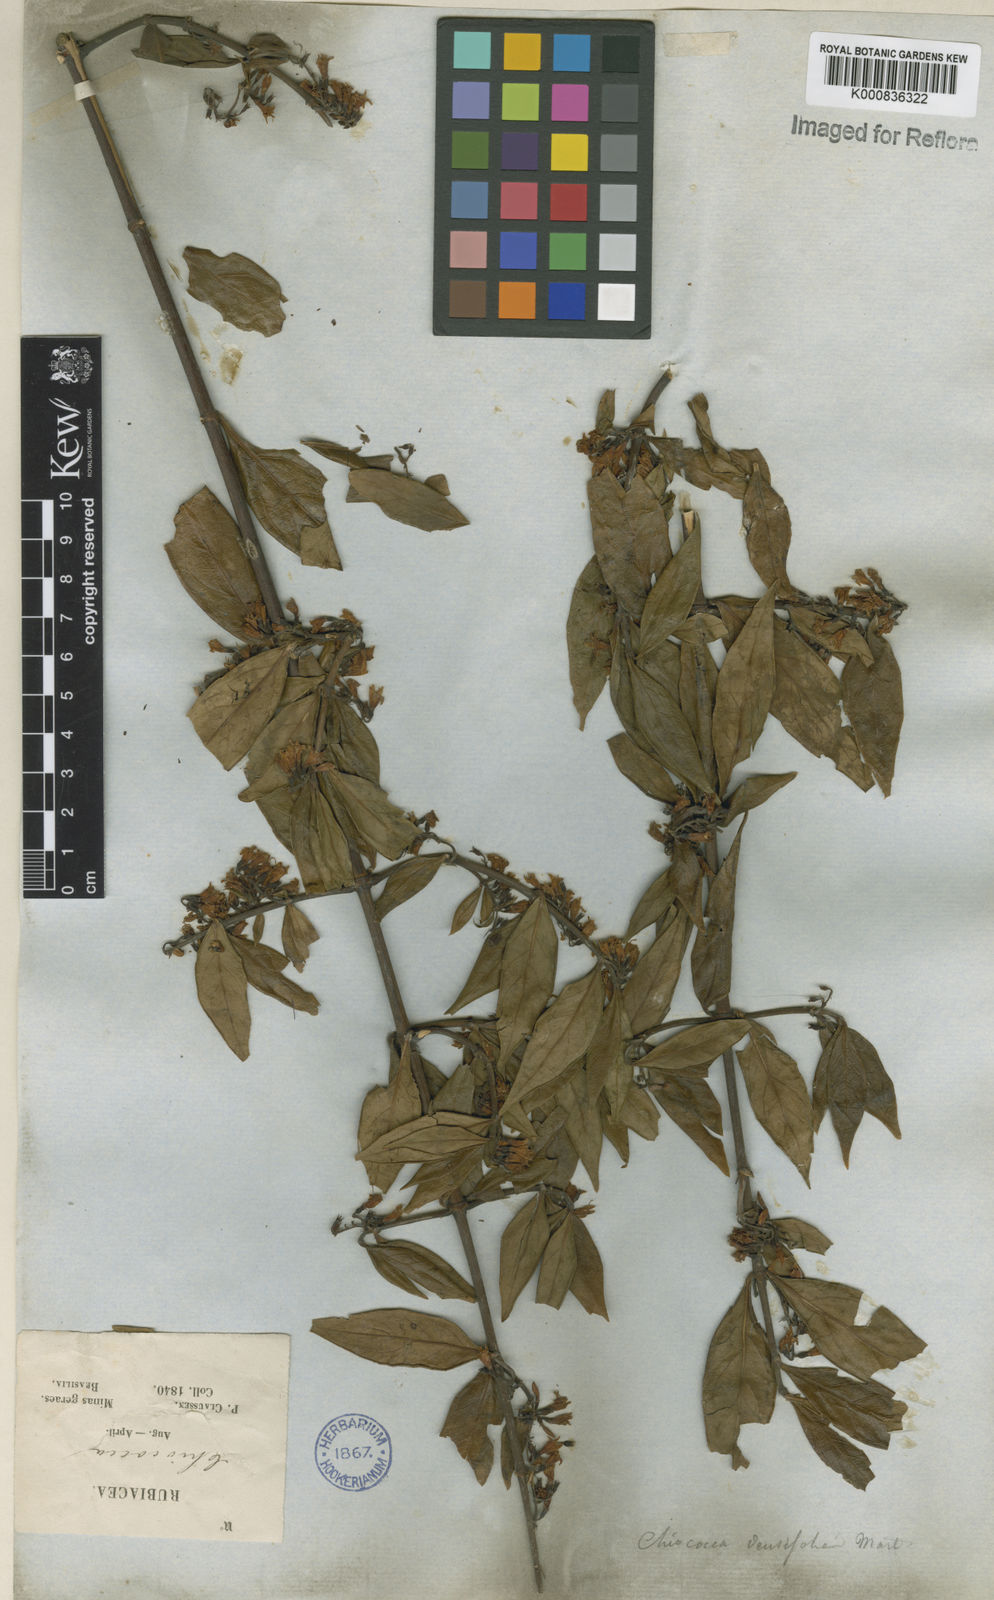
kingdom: Plantae
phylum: Tracheophyta
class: Magnoliopsida
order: Gentianales
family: Rubiaceae
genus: Chiococca
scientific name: Chiococca alba
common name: Snowberry
